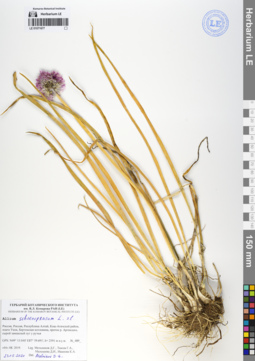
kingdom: Plantae
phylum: Tracheophyta
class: Liliopsida
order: Asparagales
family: Amaryllidaceae
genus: Allium
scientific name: Allium schoenoprasum
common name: Chives
